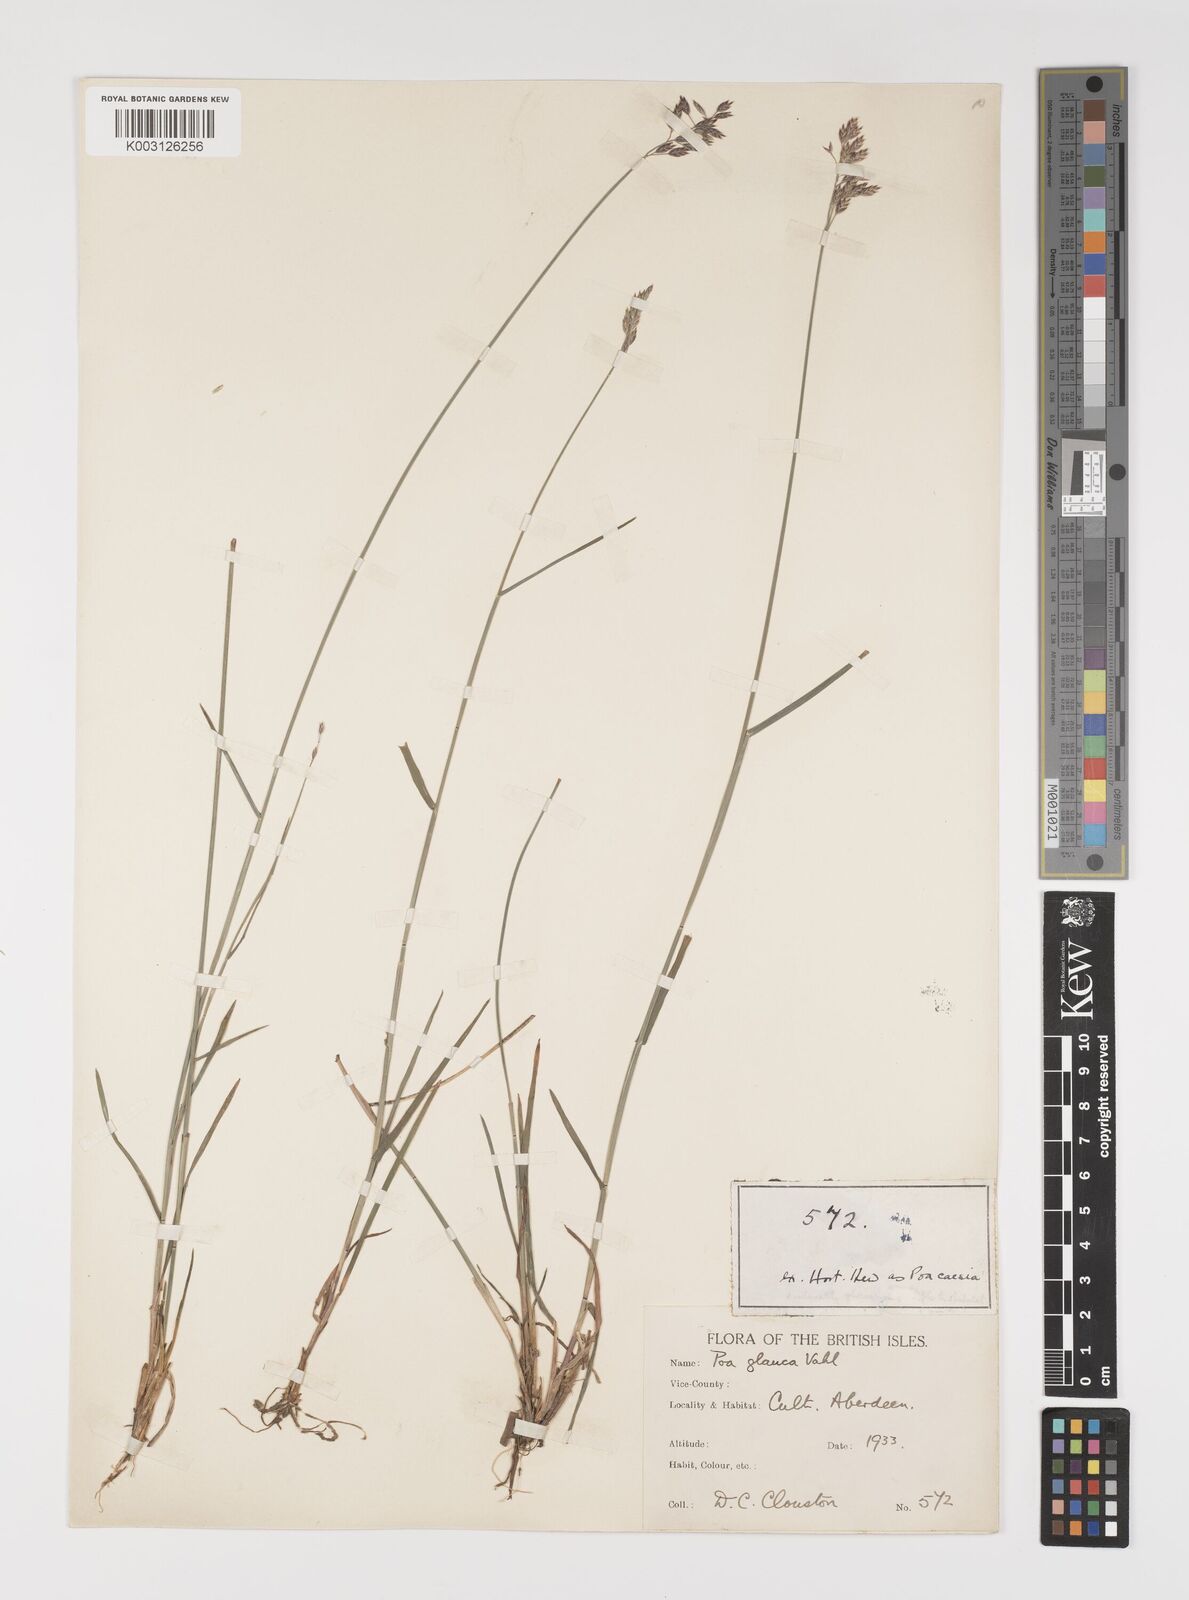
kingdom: Plantae
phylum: Tracheophyta
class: Liliopsida
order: Poales
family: Poaceae
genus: Poa
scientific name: Poa glauca
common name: Glaucous bluegrass
